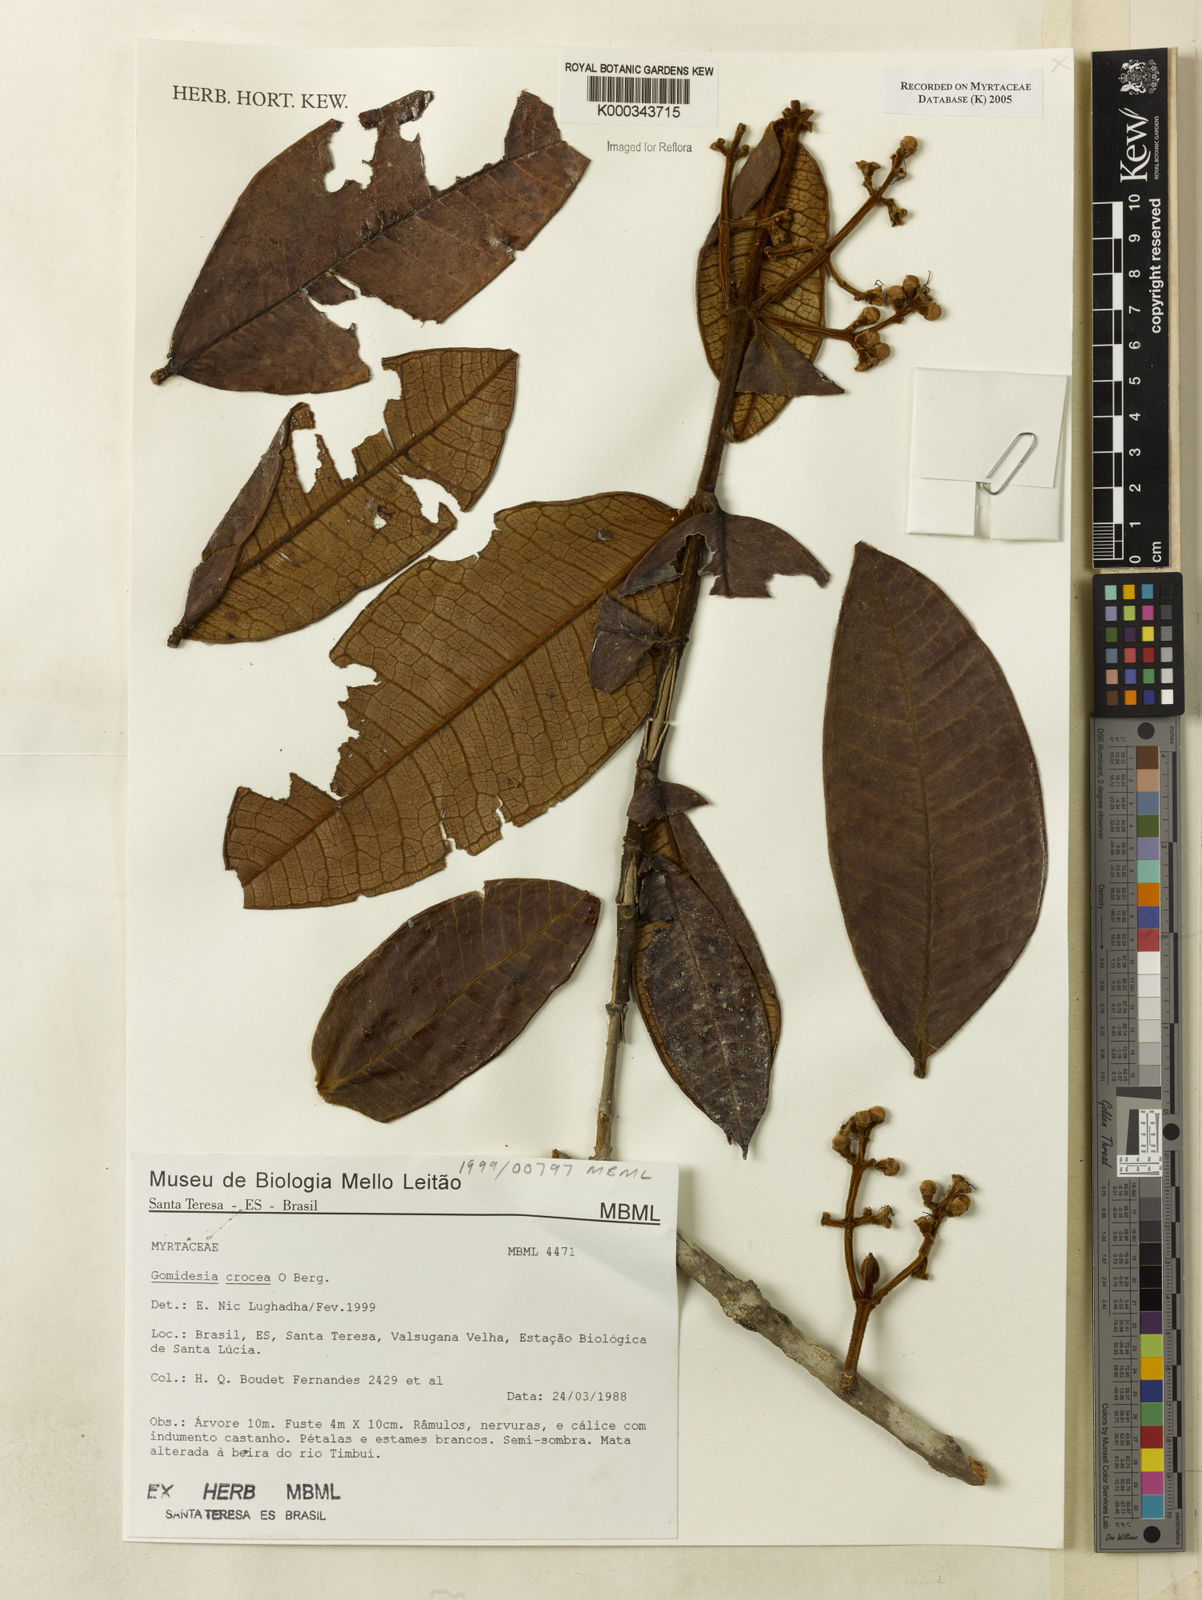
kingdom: Plantae
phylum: Tracheophyta
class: Magnoliopsida
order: Myrtales
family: Myrtaceae
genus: Myrcia
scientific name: Myrcia amplexicaulis
